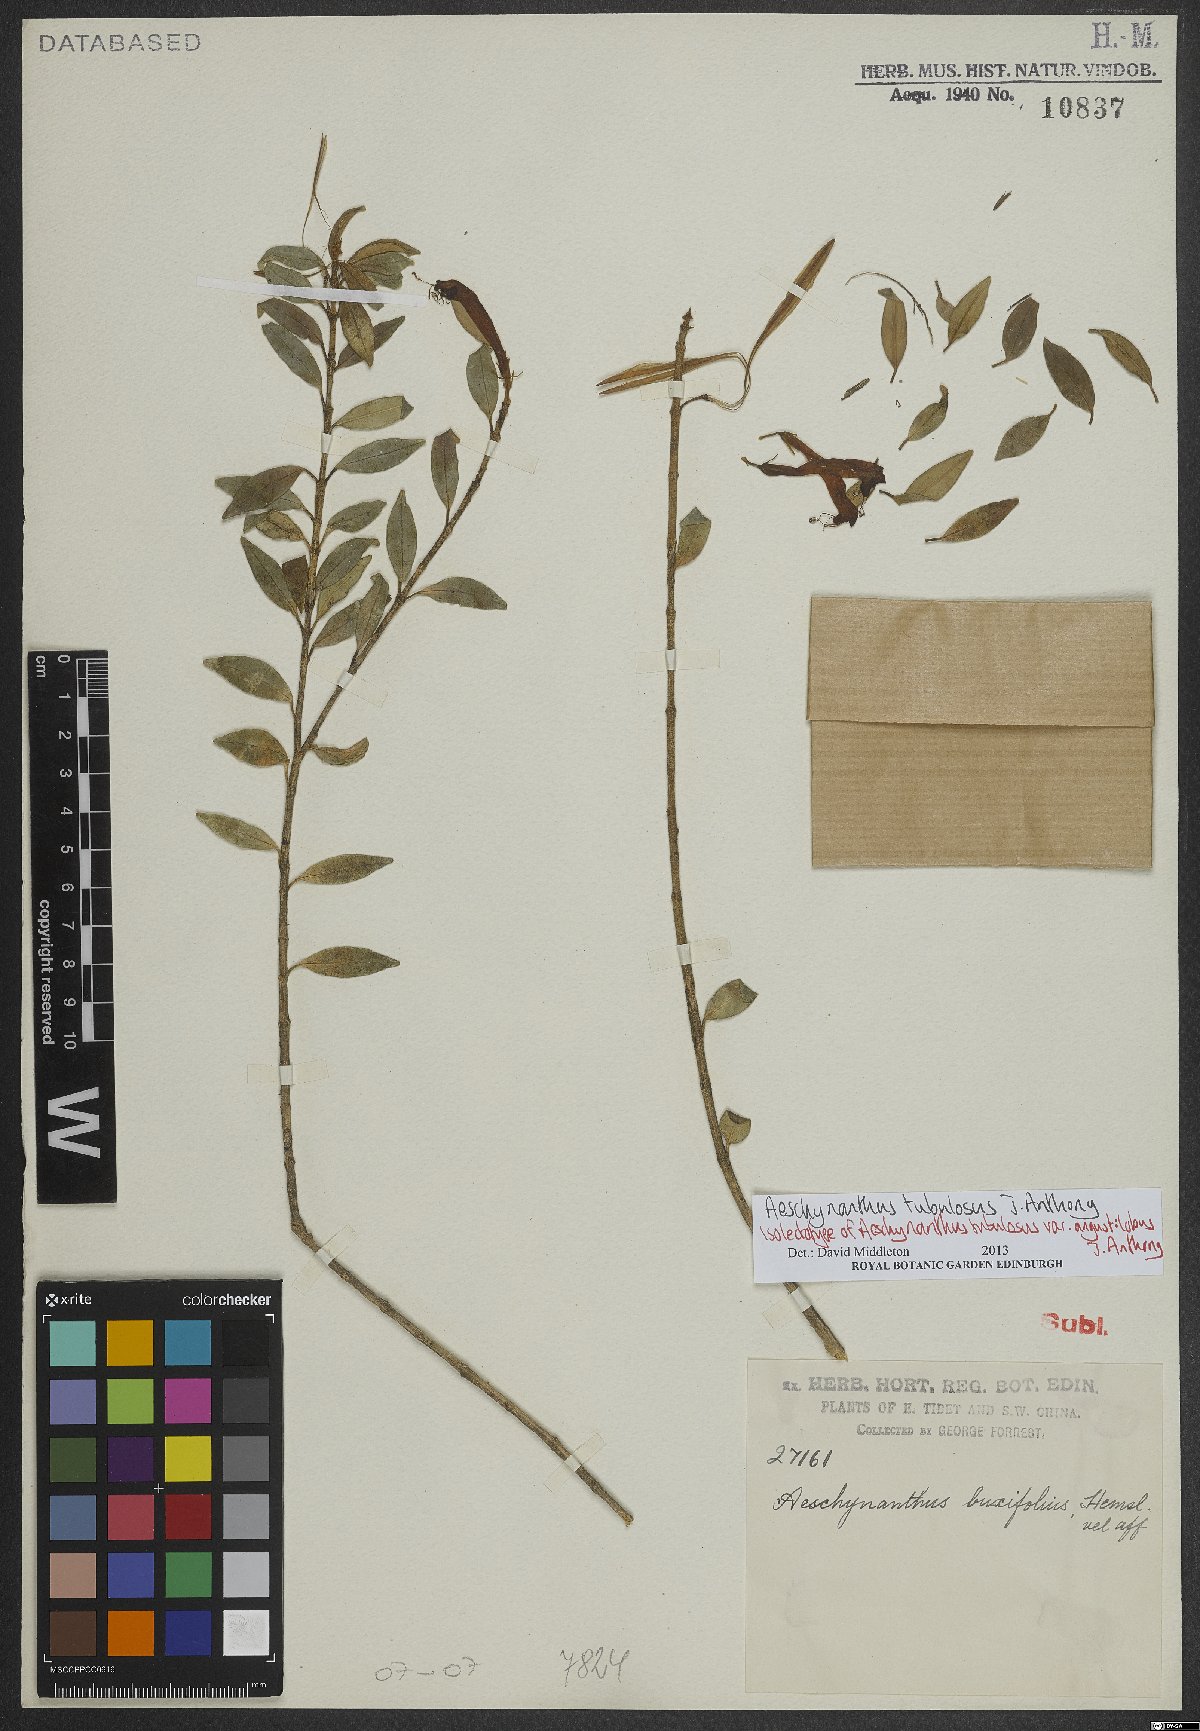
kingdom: Plantae
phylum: Tracheophyta
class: Magnoliopsida
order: Lamiales
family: Gesneriaceae
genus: Aeschynanthus
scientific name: Aeschynanthus tubulosus
